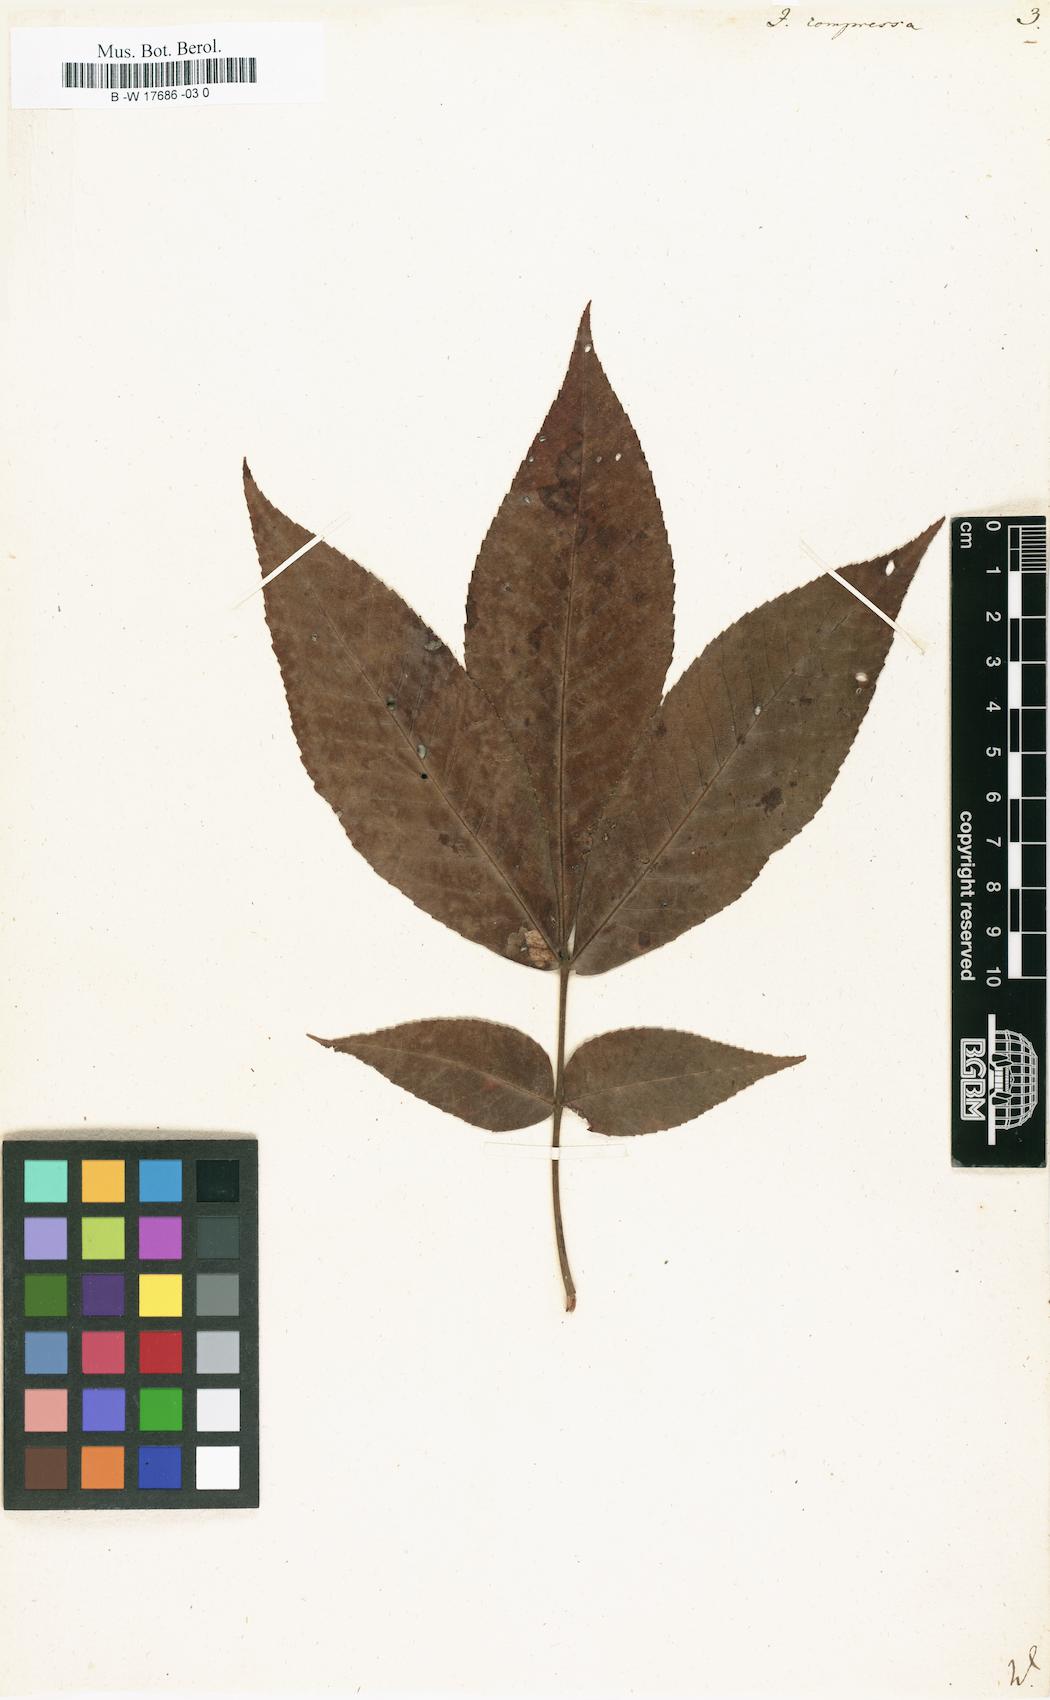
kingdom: Plantae
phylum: Tracheophyta
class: Magnoliopsida
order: Fagales
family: Juglandaceae
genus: Carya
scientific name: Carya cordiformis
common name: Bitternut hickory
